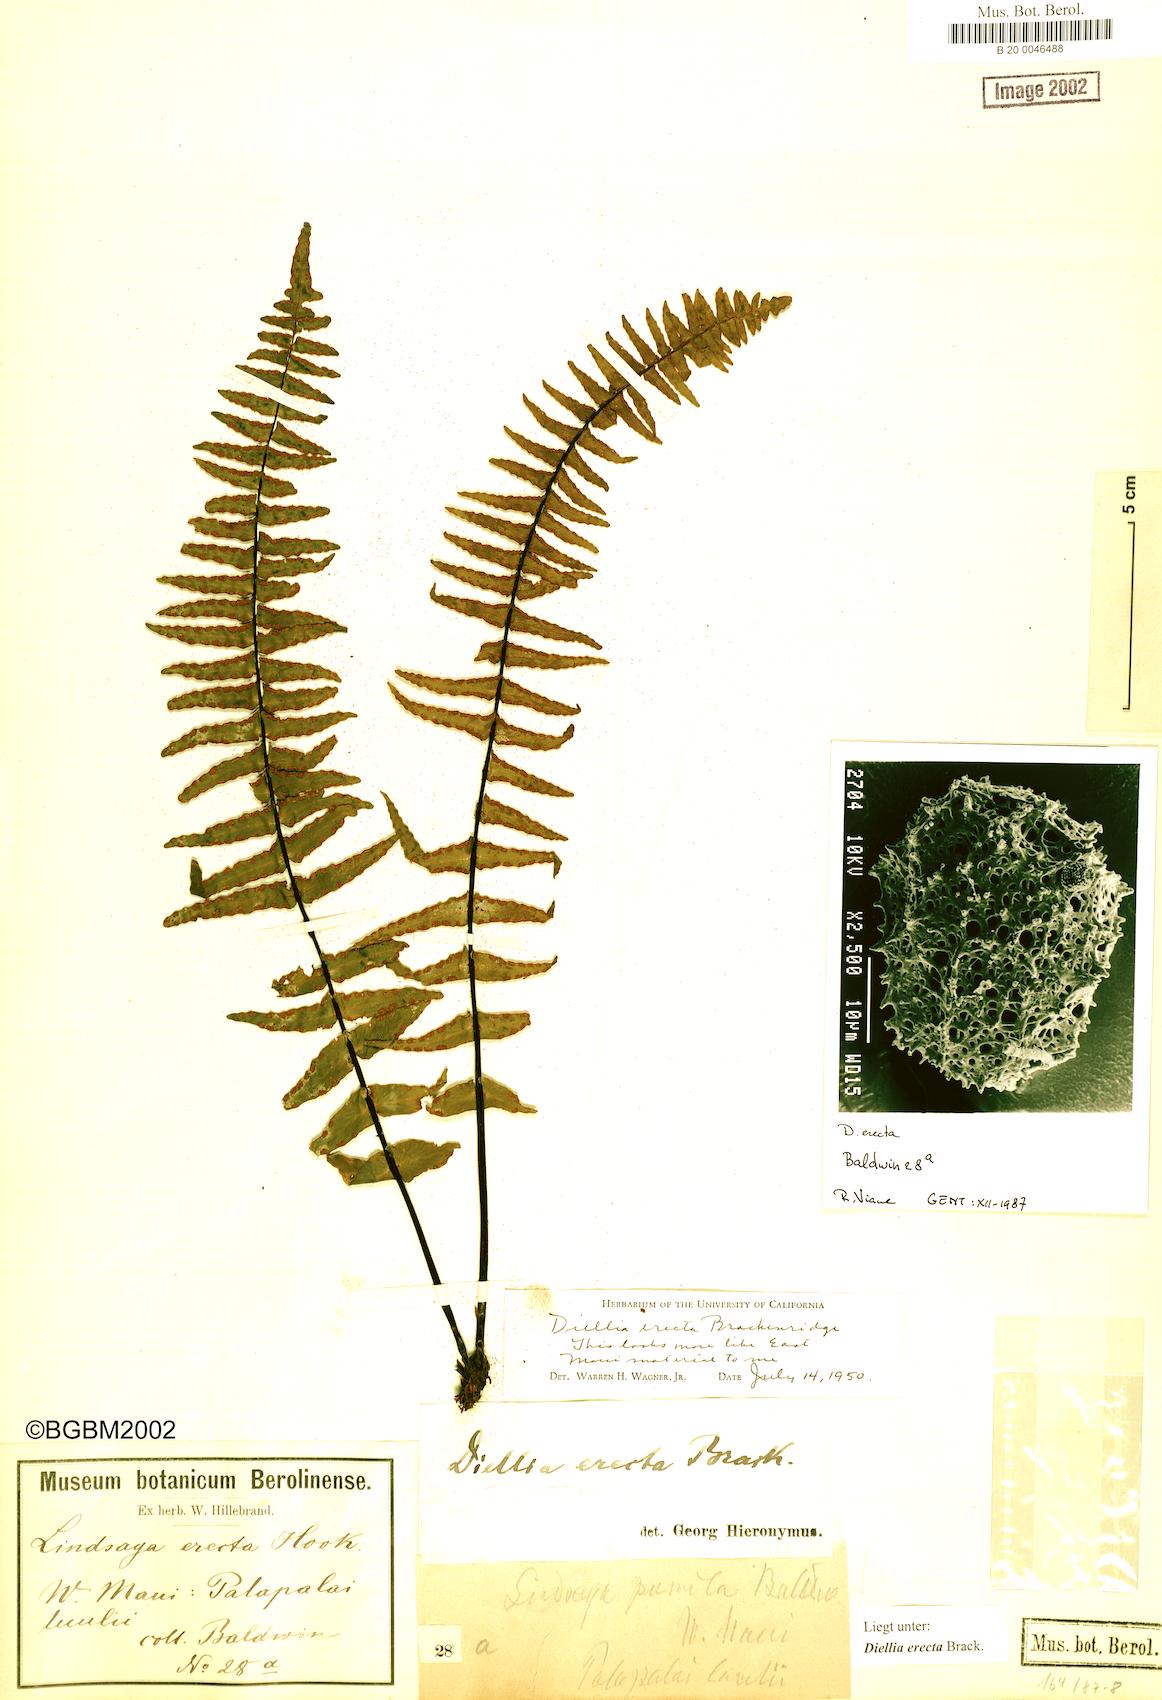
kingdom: Plantae
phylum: Tracheophyta
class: Polypodiopsida
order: Polypodiales
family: Aspleniaceae
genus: Asplenium
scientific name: Asplenium dielerectum
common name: Erect island spleenwort
